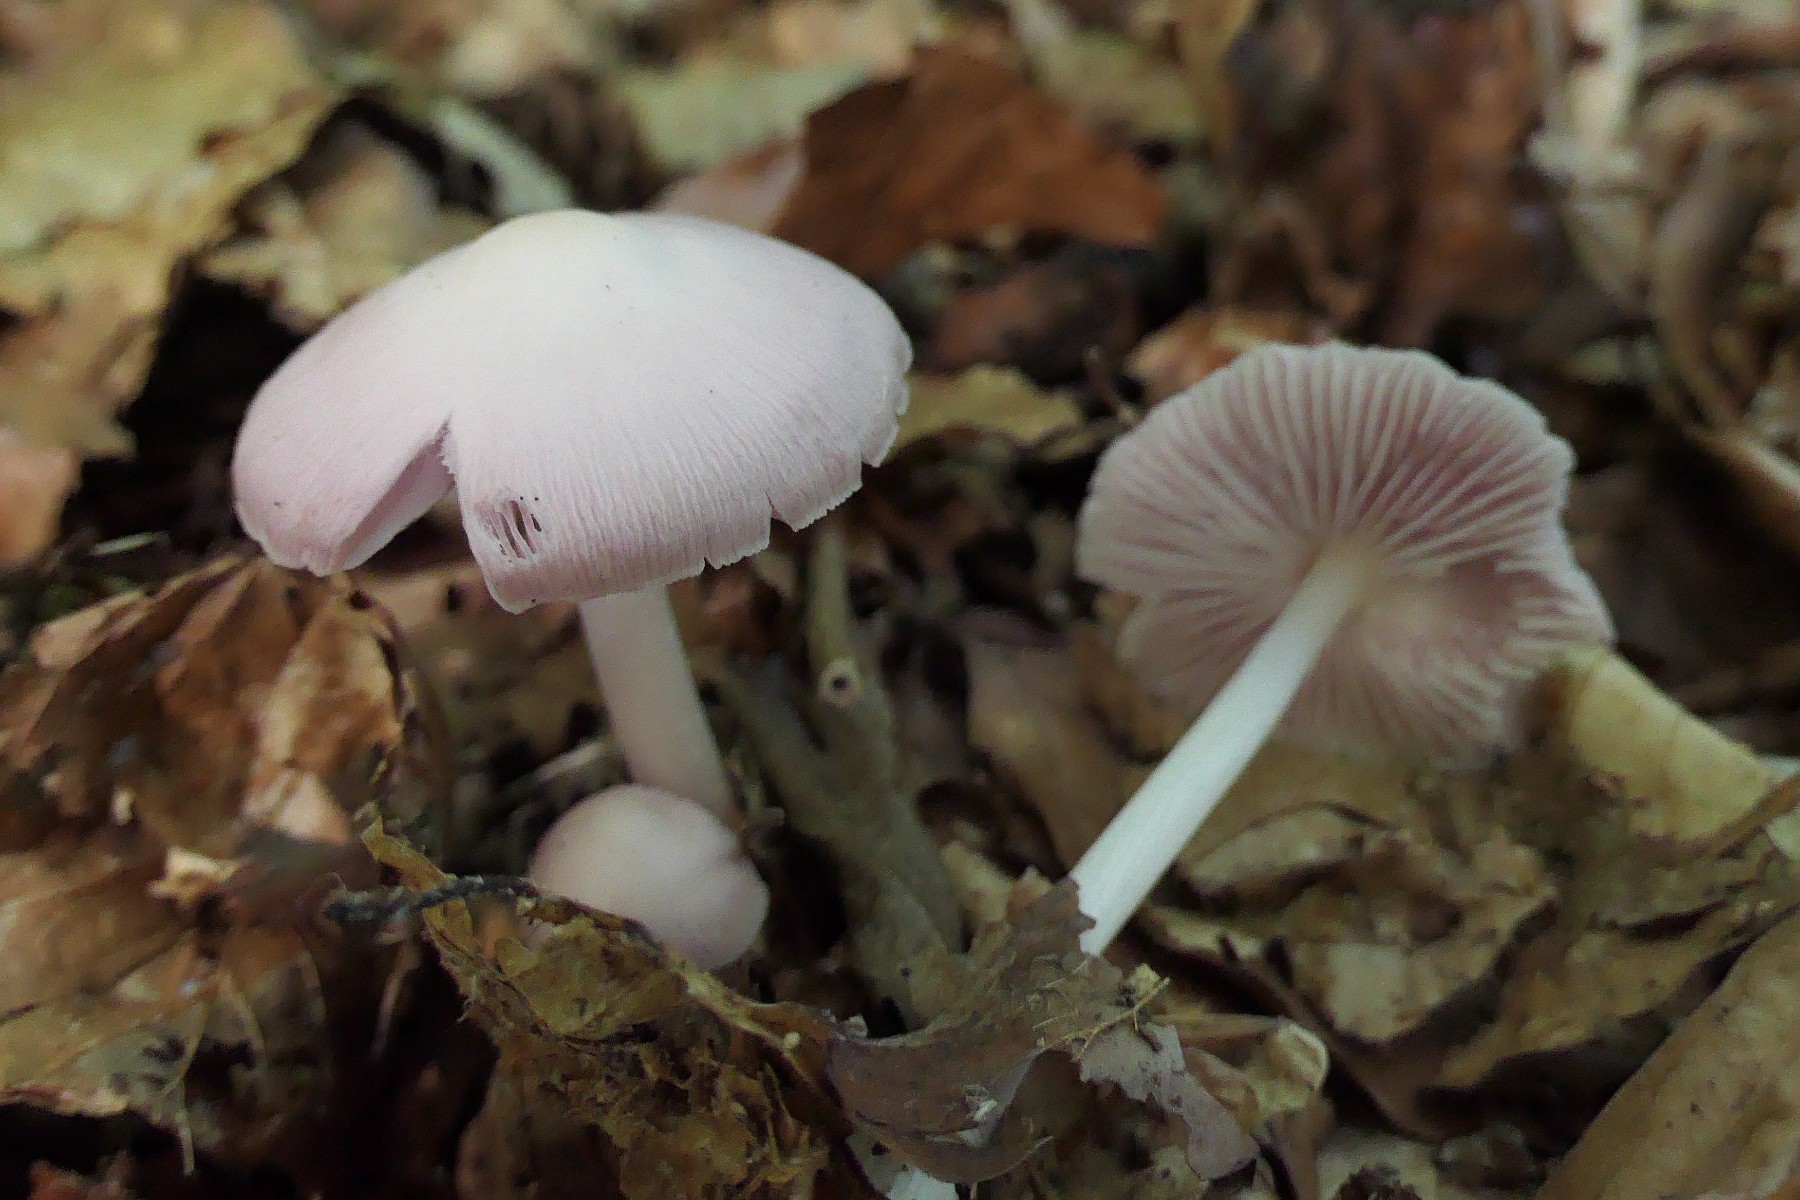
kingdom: Fungi
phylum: Basidiomycota
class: Agaricomycetes
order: Agaricales
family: Mycenaceae
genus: Mycena
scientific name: Mycena rosea
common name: rosa huesvamp
